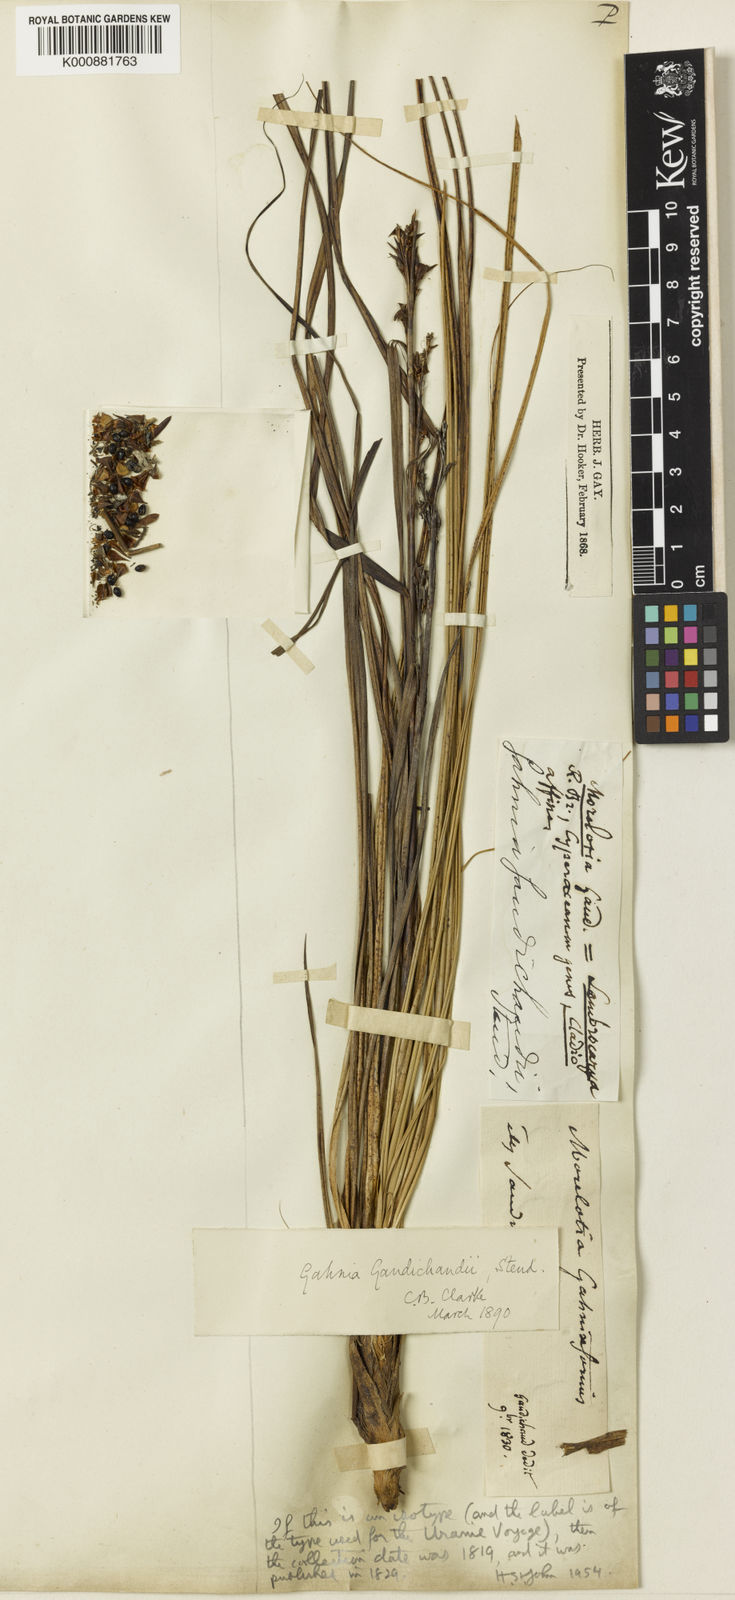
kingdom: Plantae
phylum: Tracheophyta
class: Liliopsida
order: Poales
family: Cyperaceae
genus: Morelotia
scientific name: Morelotia gahniiformis
